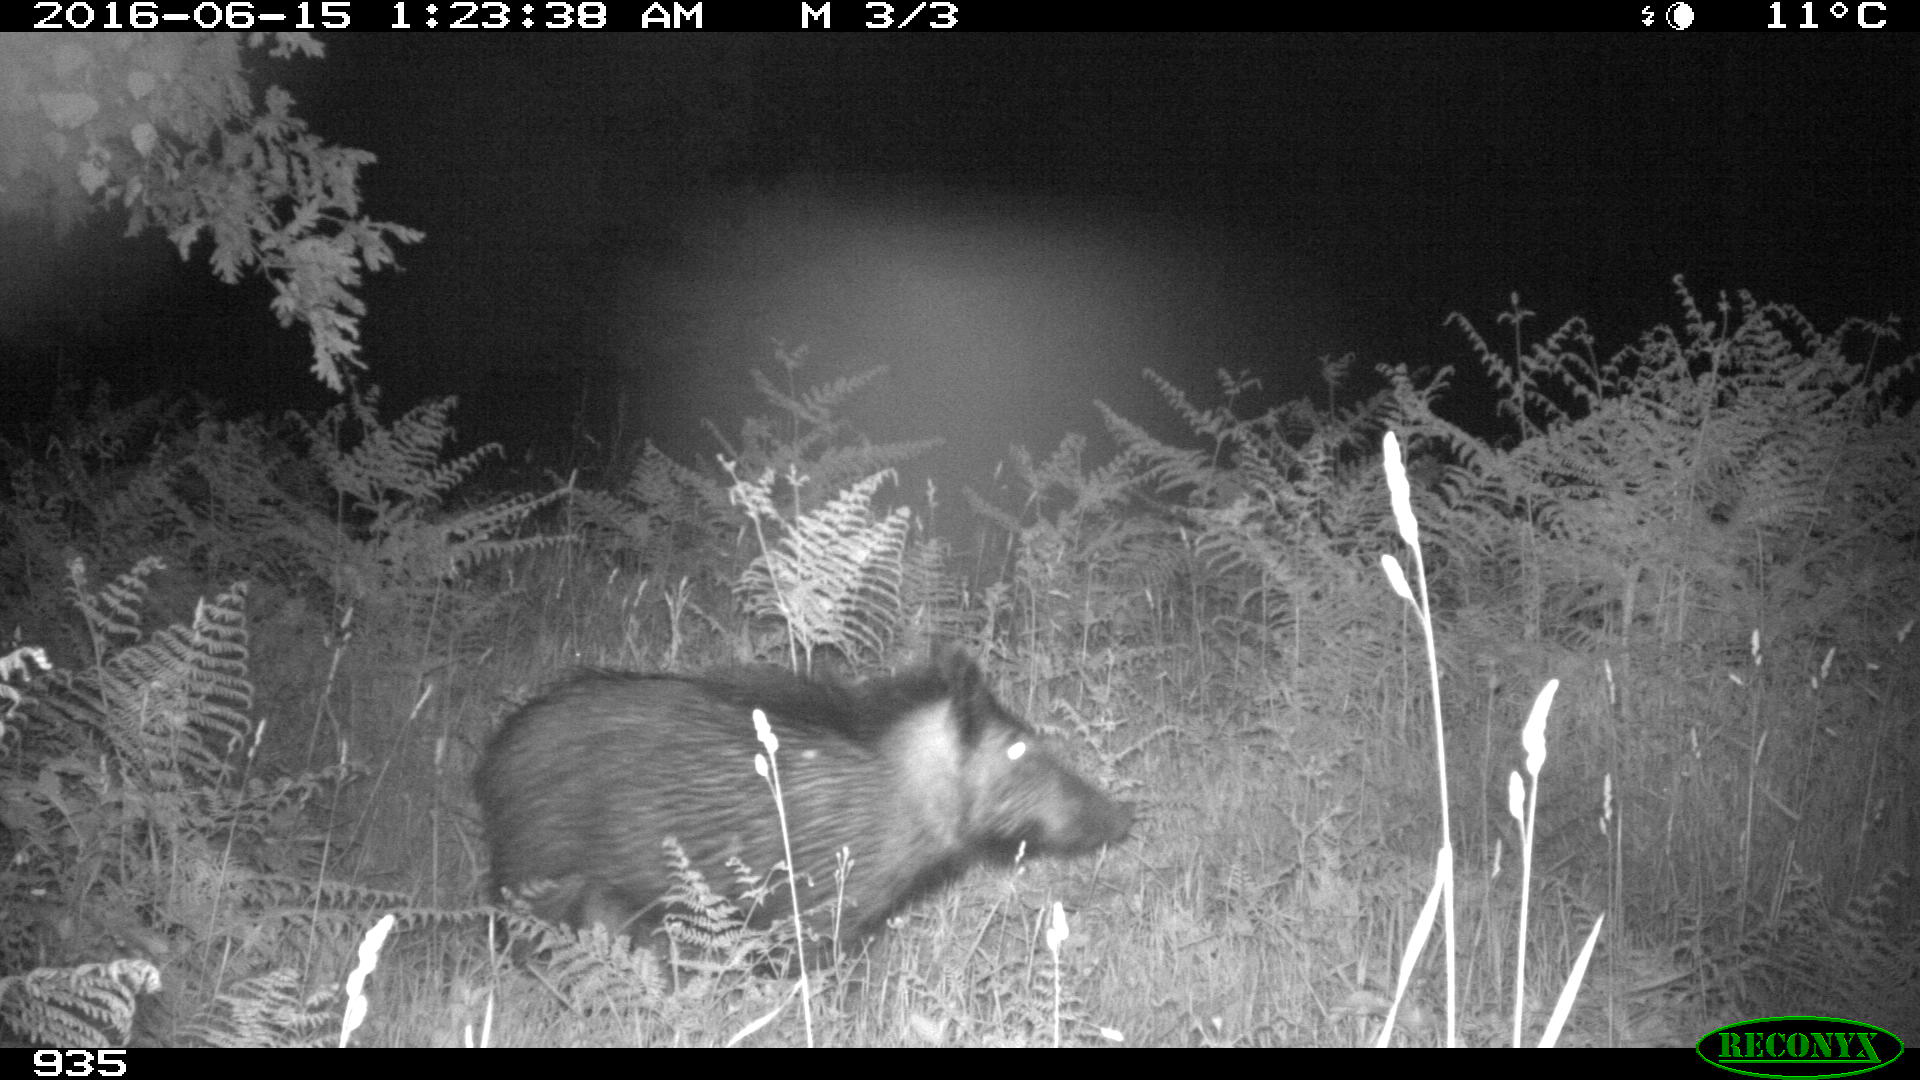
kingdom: Animalia
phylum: Chordata
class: Mammalia
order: Artiodactyla
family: Suidae
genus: Sus
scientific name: Sus scrofa
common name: Wild boar
